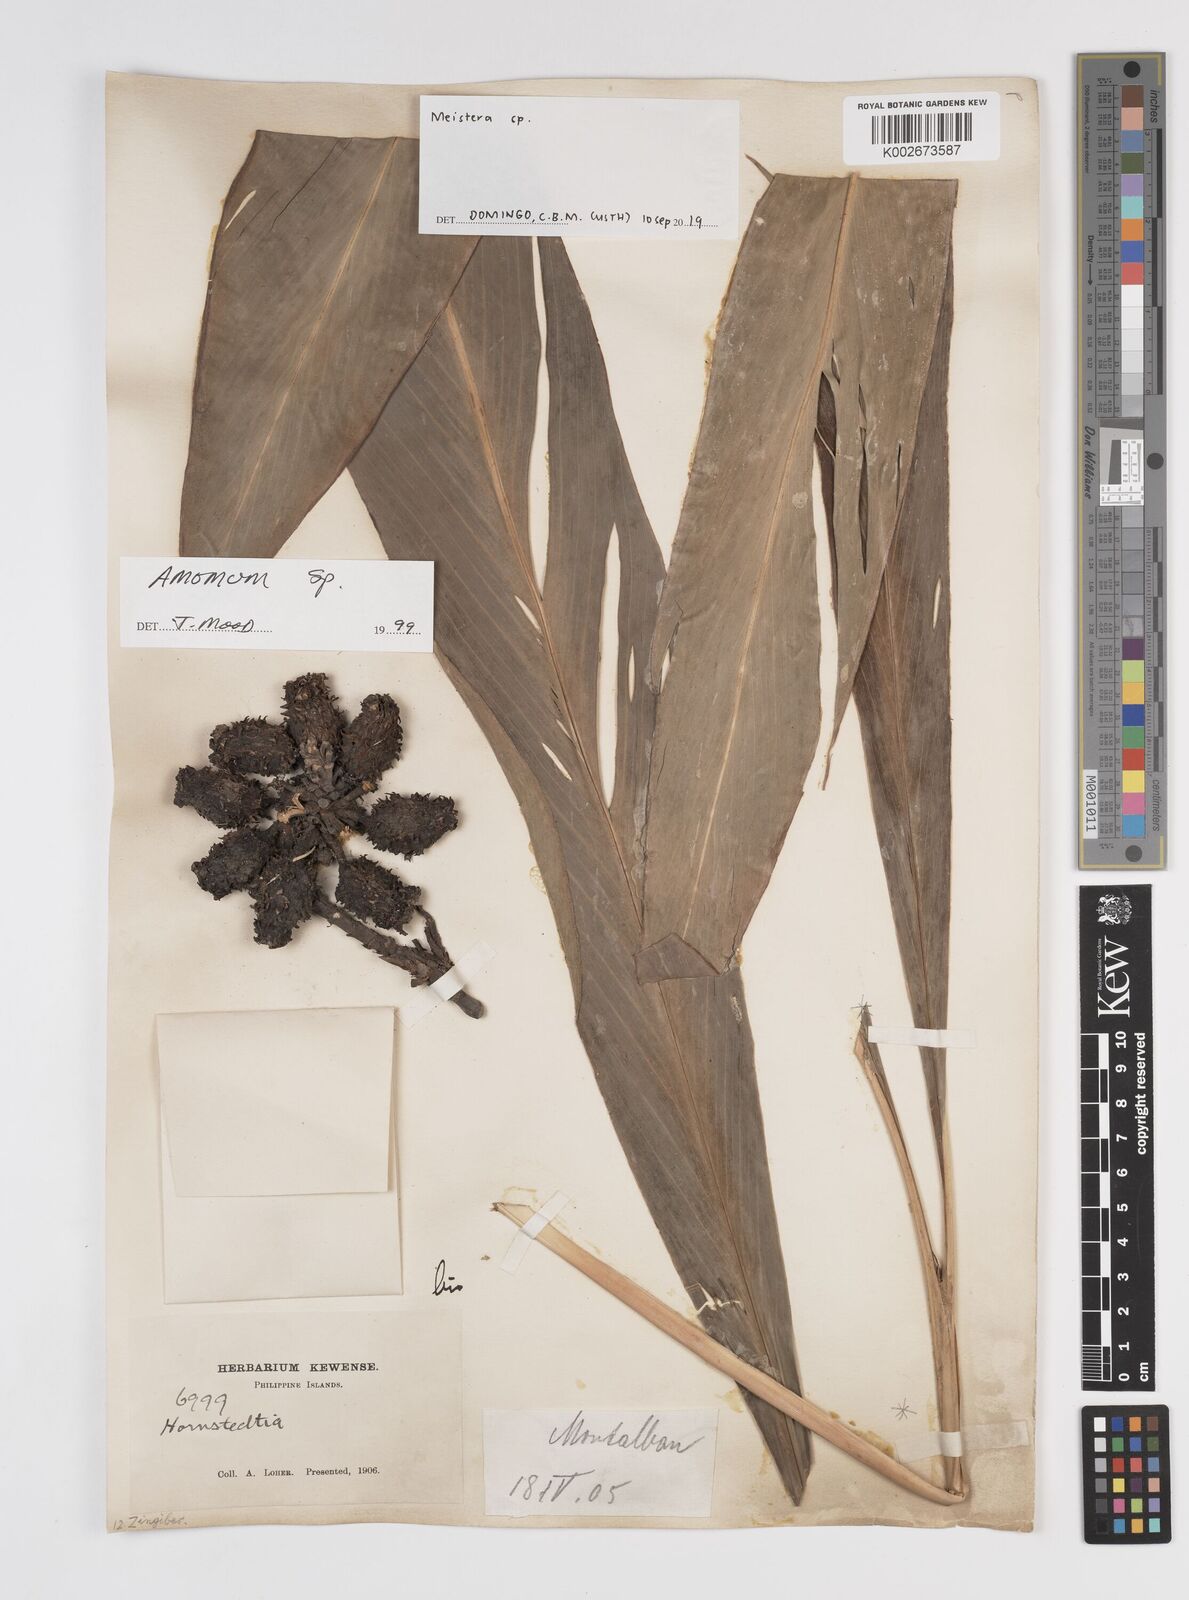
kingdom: Plantae
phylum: Tracheophyta
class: Liliopsida
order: Zingiberales
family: Zingiberaceae
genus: Amomum
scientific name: Amomum
